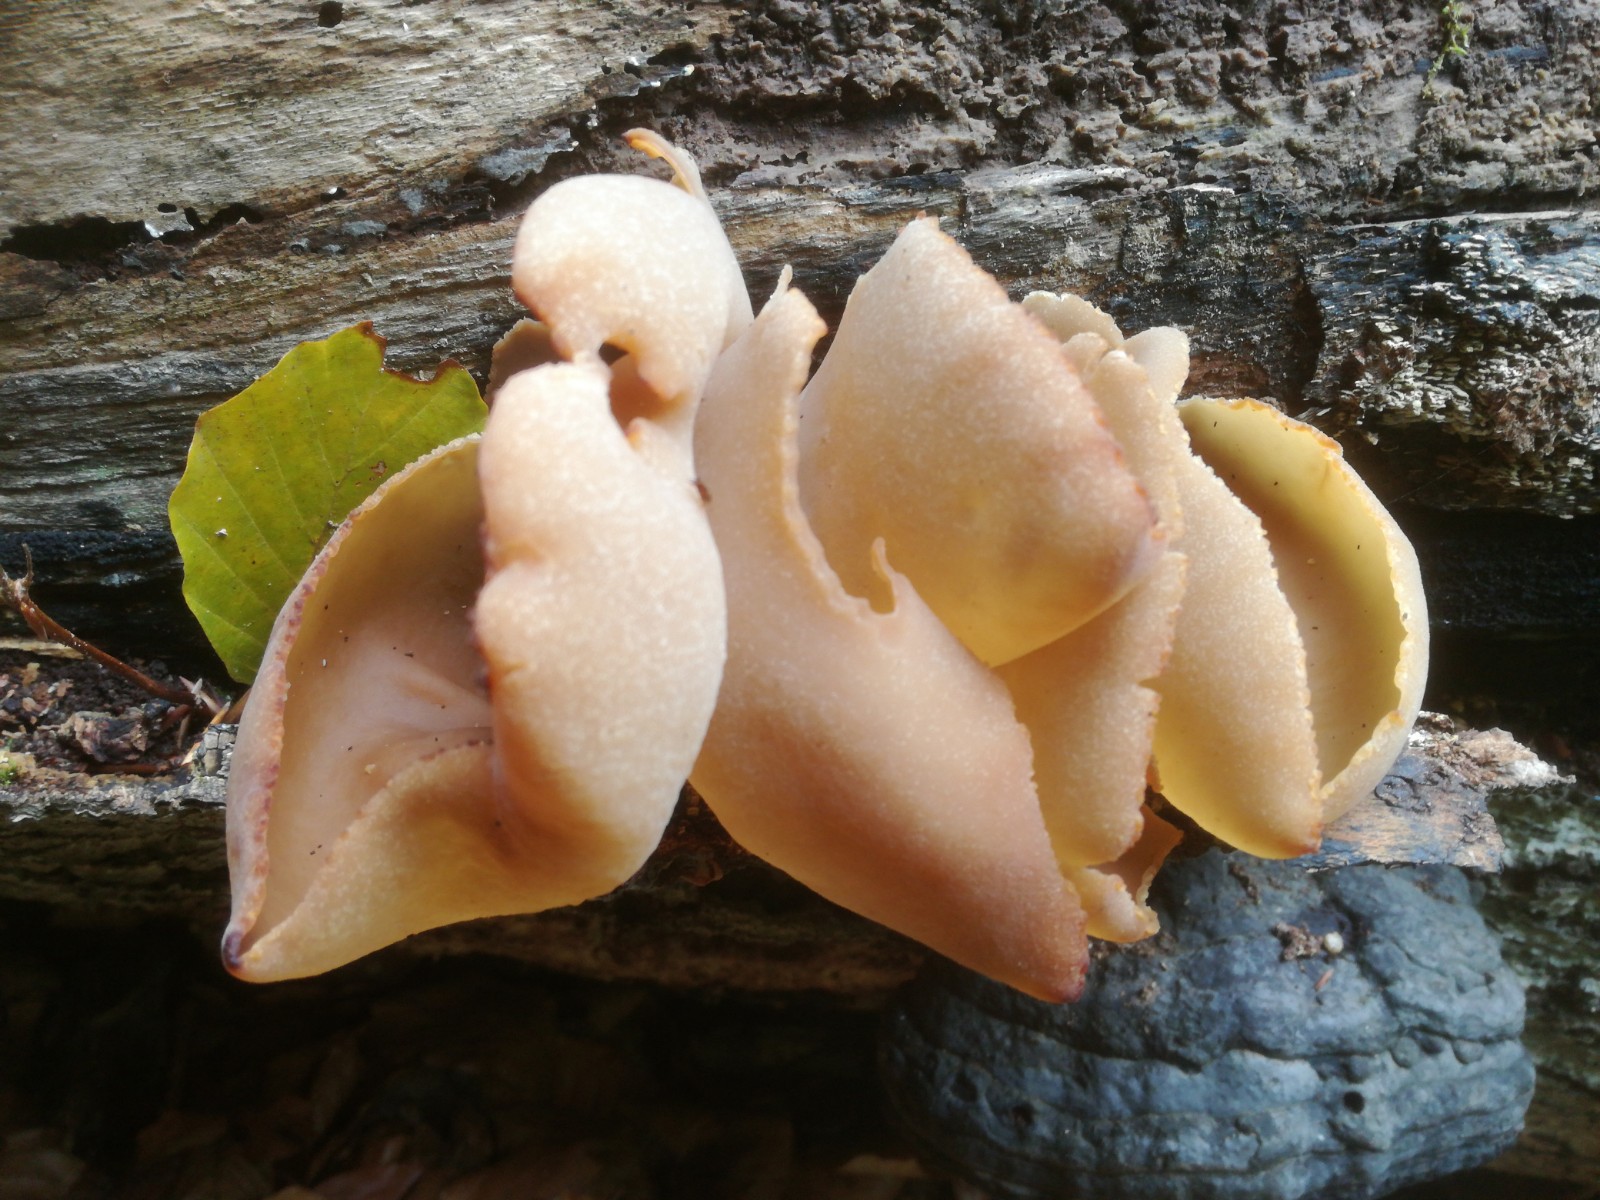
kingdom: Fungi
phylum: Ascomycota
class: Pezizomycetes
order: Pezizales
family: Pezizaceae
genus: Peziza
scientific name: Peziza varia
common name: Ved-bægersvamp
